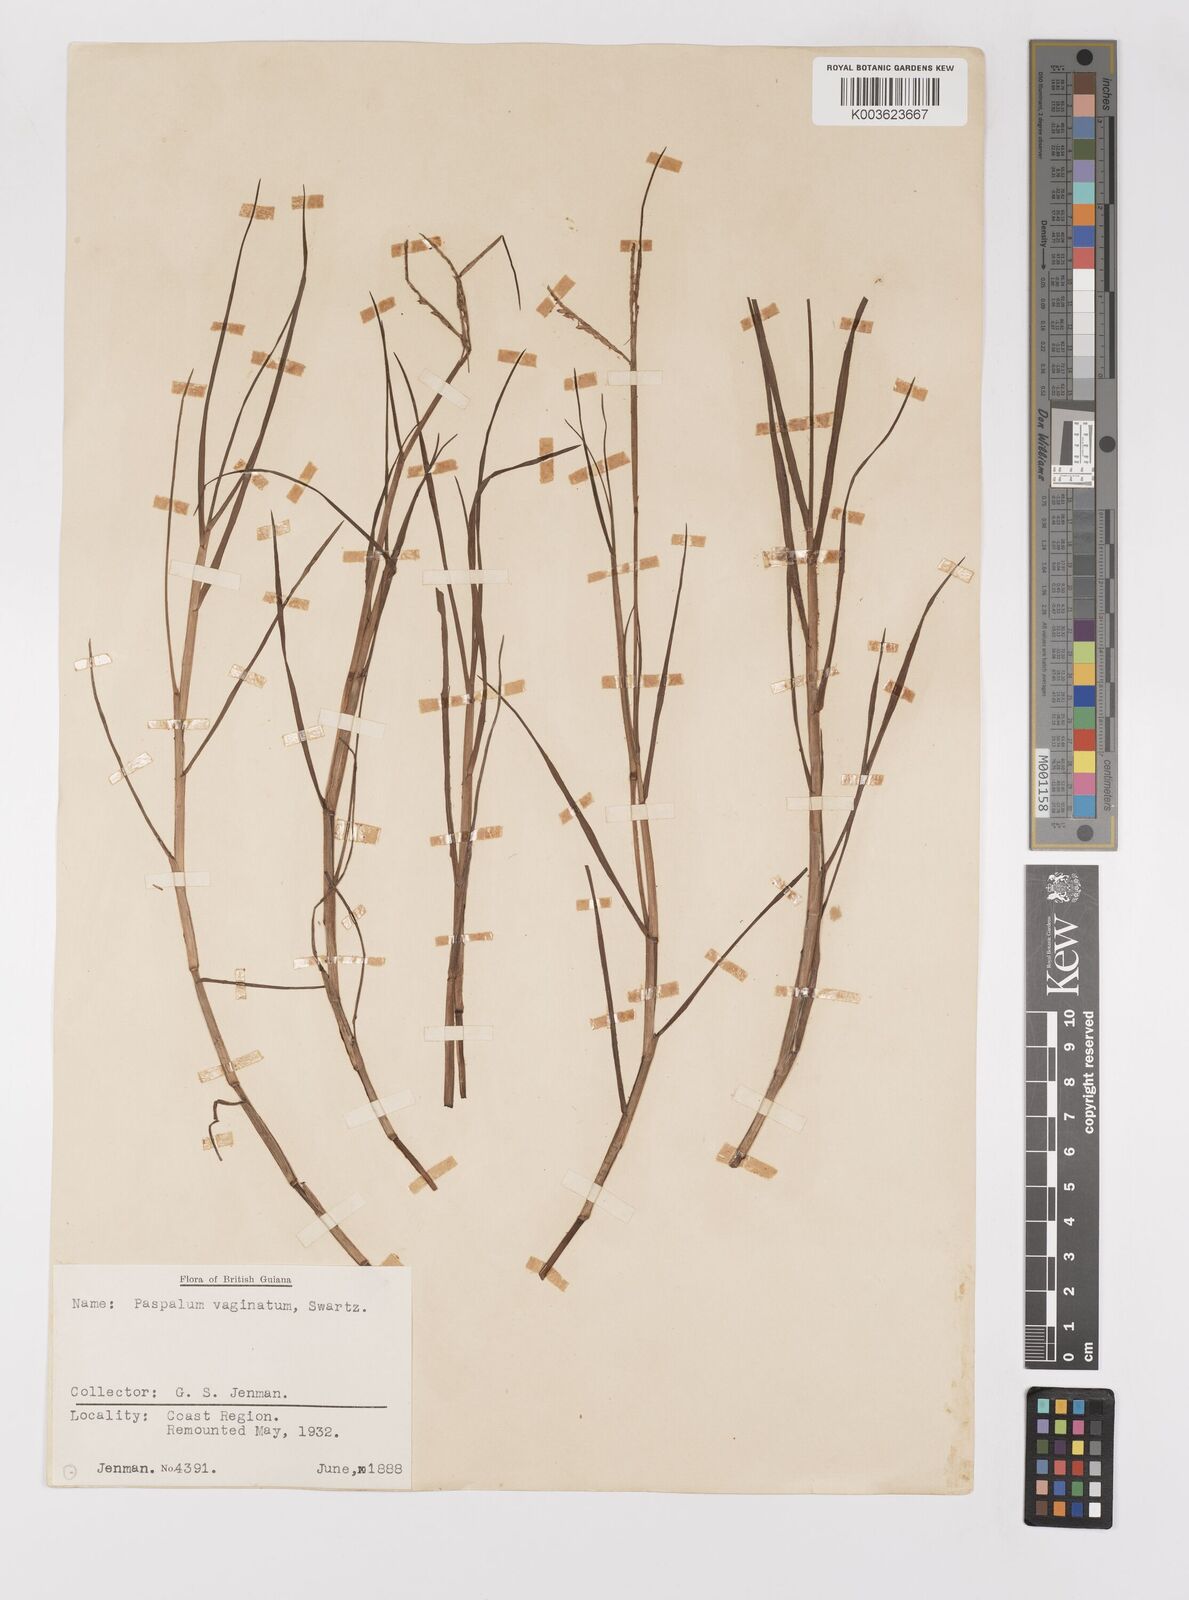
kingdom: Plantae
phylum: Tracheophyta
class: Liliopsida
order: Poales
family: Poaceae
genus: Paspalum
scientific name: Paspalum vaginatum
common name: Seashore paspalum
